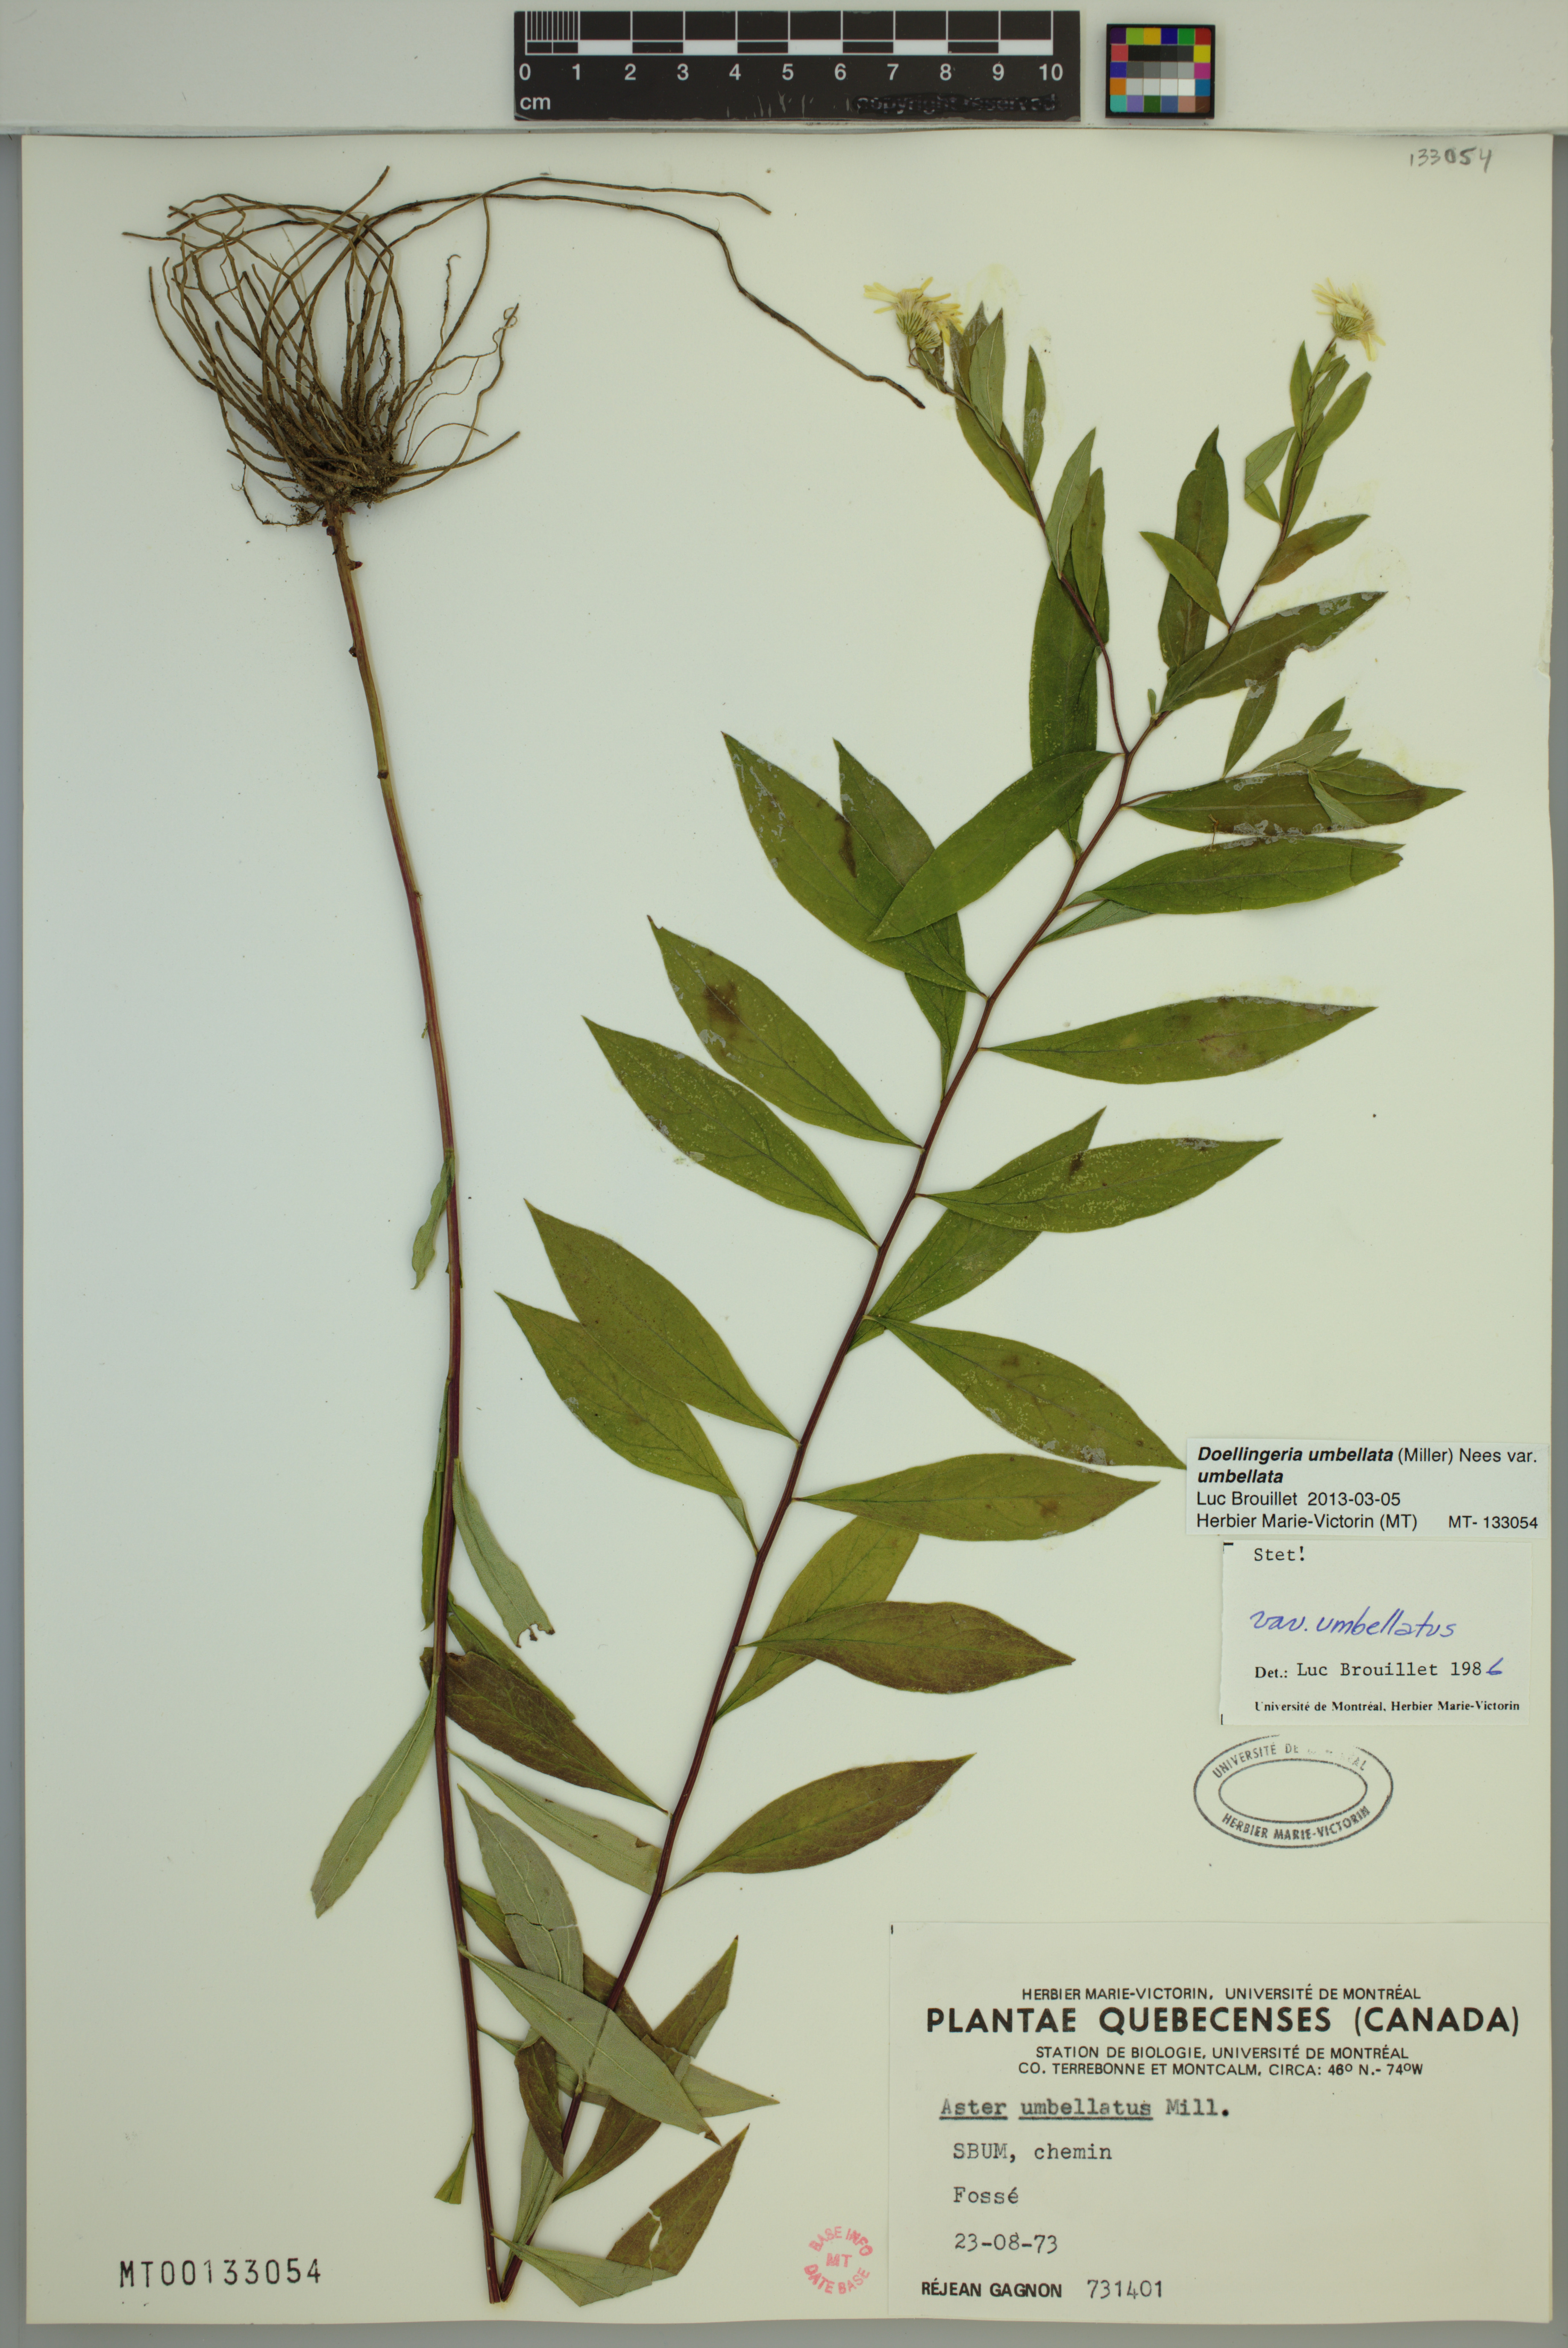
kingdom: Plantae
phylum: Tracheophyta
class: Magnoliopsida
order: Asterales
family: Asteraceae
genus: Doellingeria
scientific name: Doellingeria umbellata
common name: Flat-top white aster
